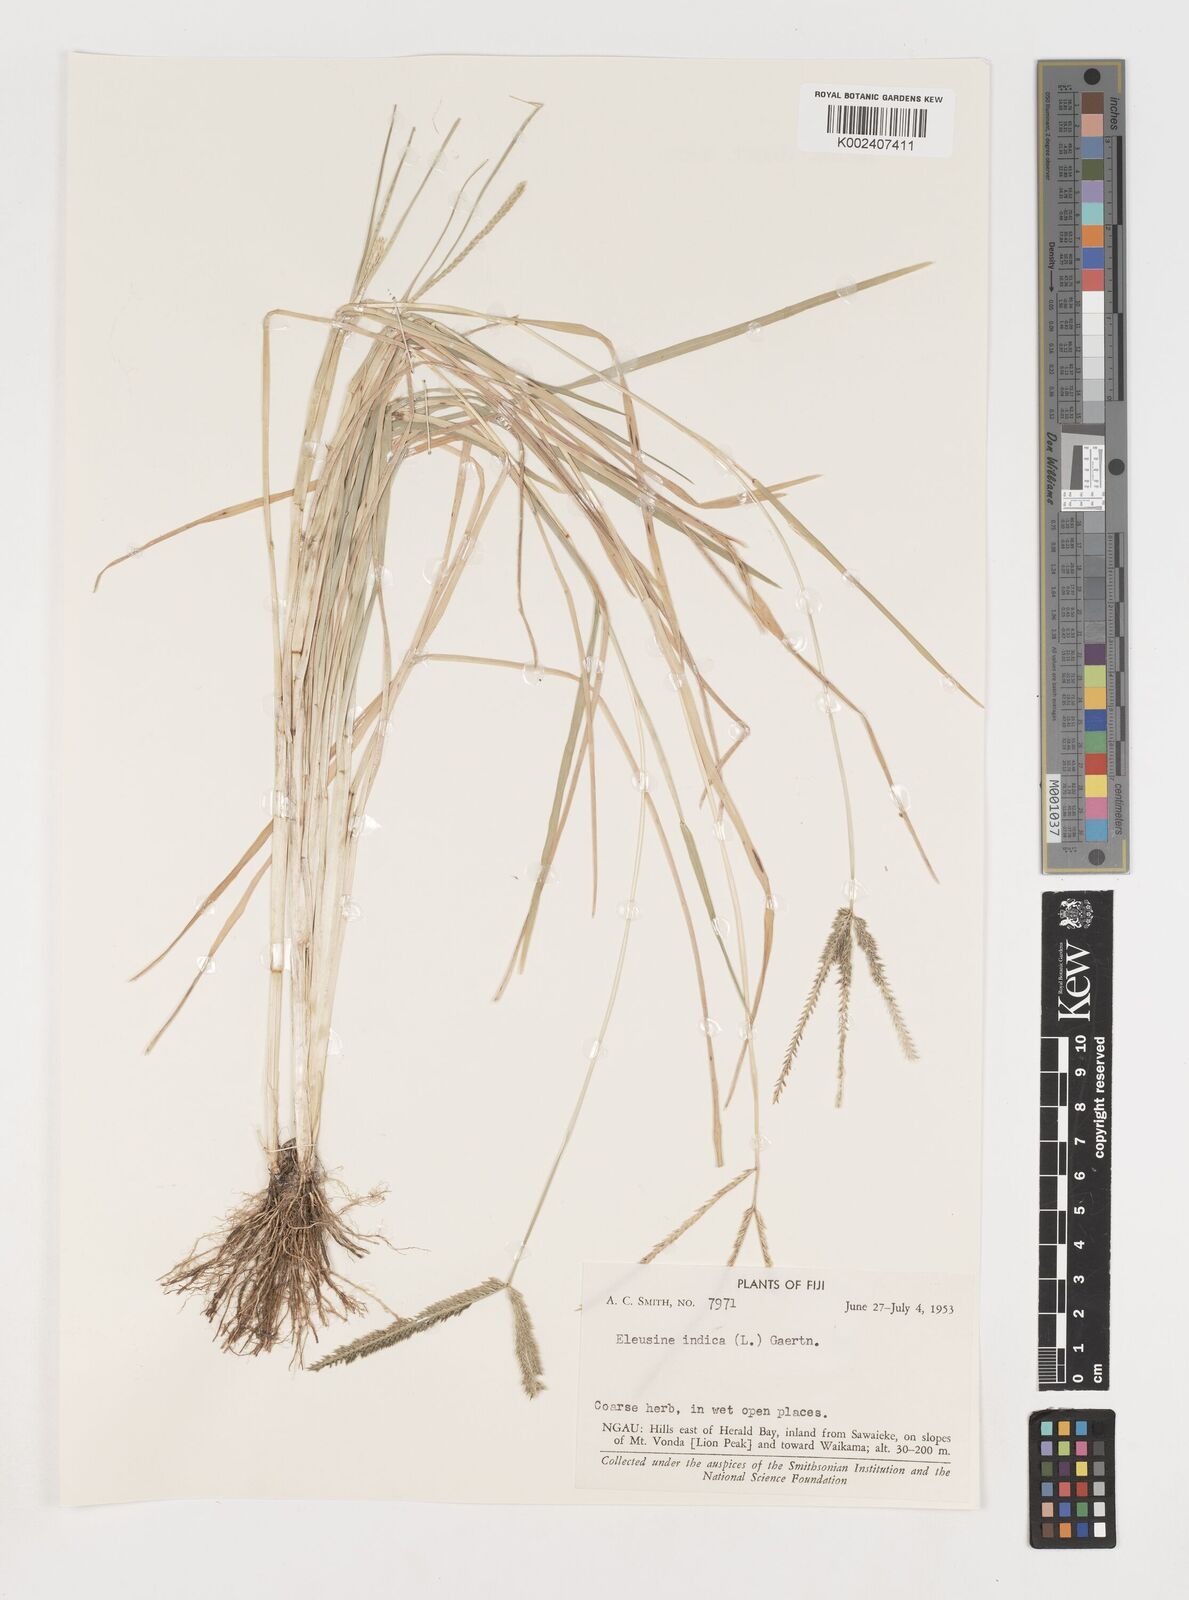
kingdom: Plantae
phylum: Tracheophyta
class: Liliopsida
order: Poales
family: Poaceae
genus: Eleusine
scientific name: Eleusine indica
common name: Yard-grass
